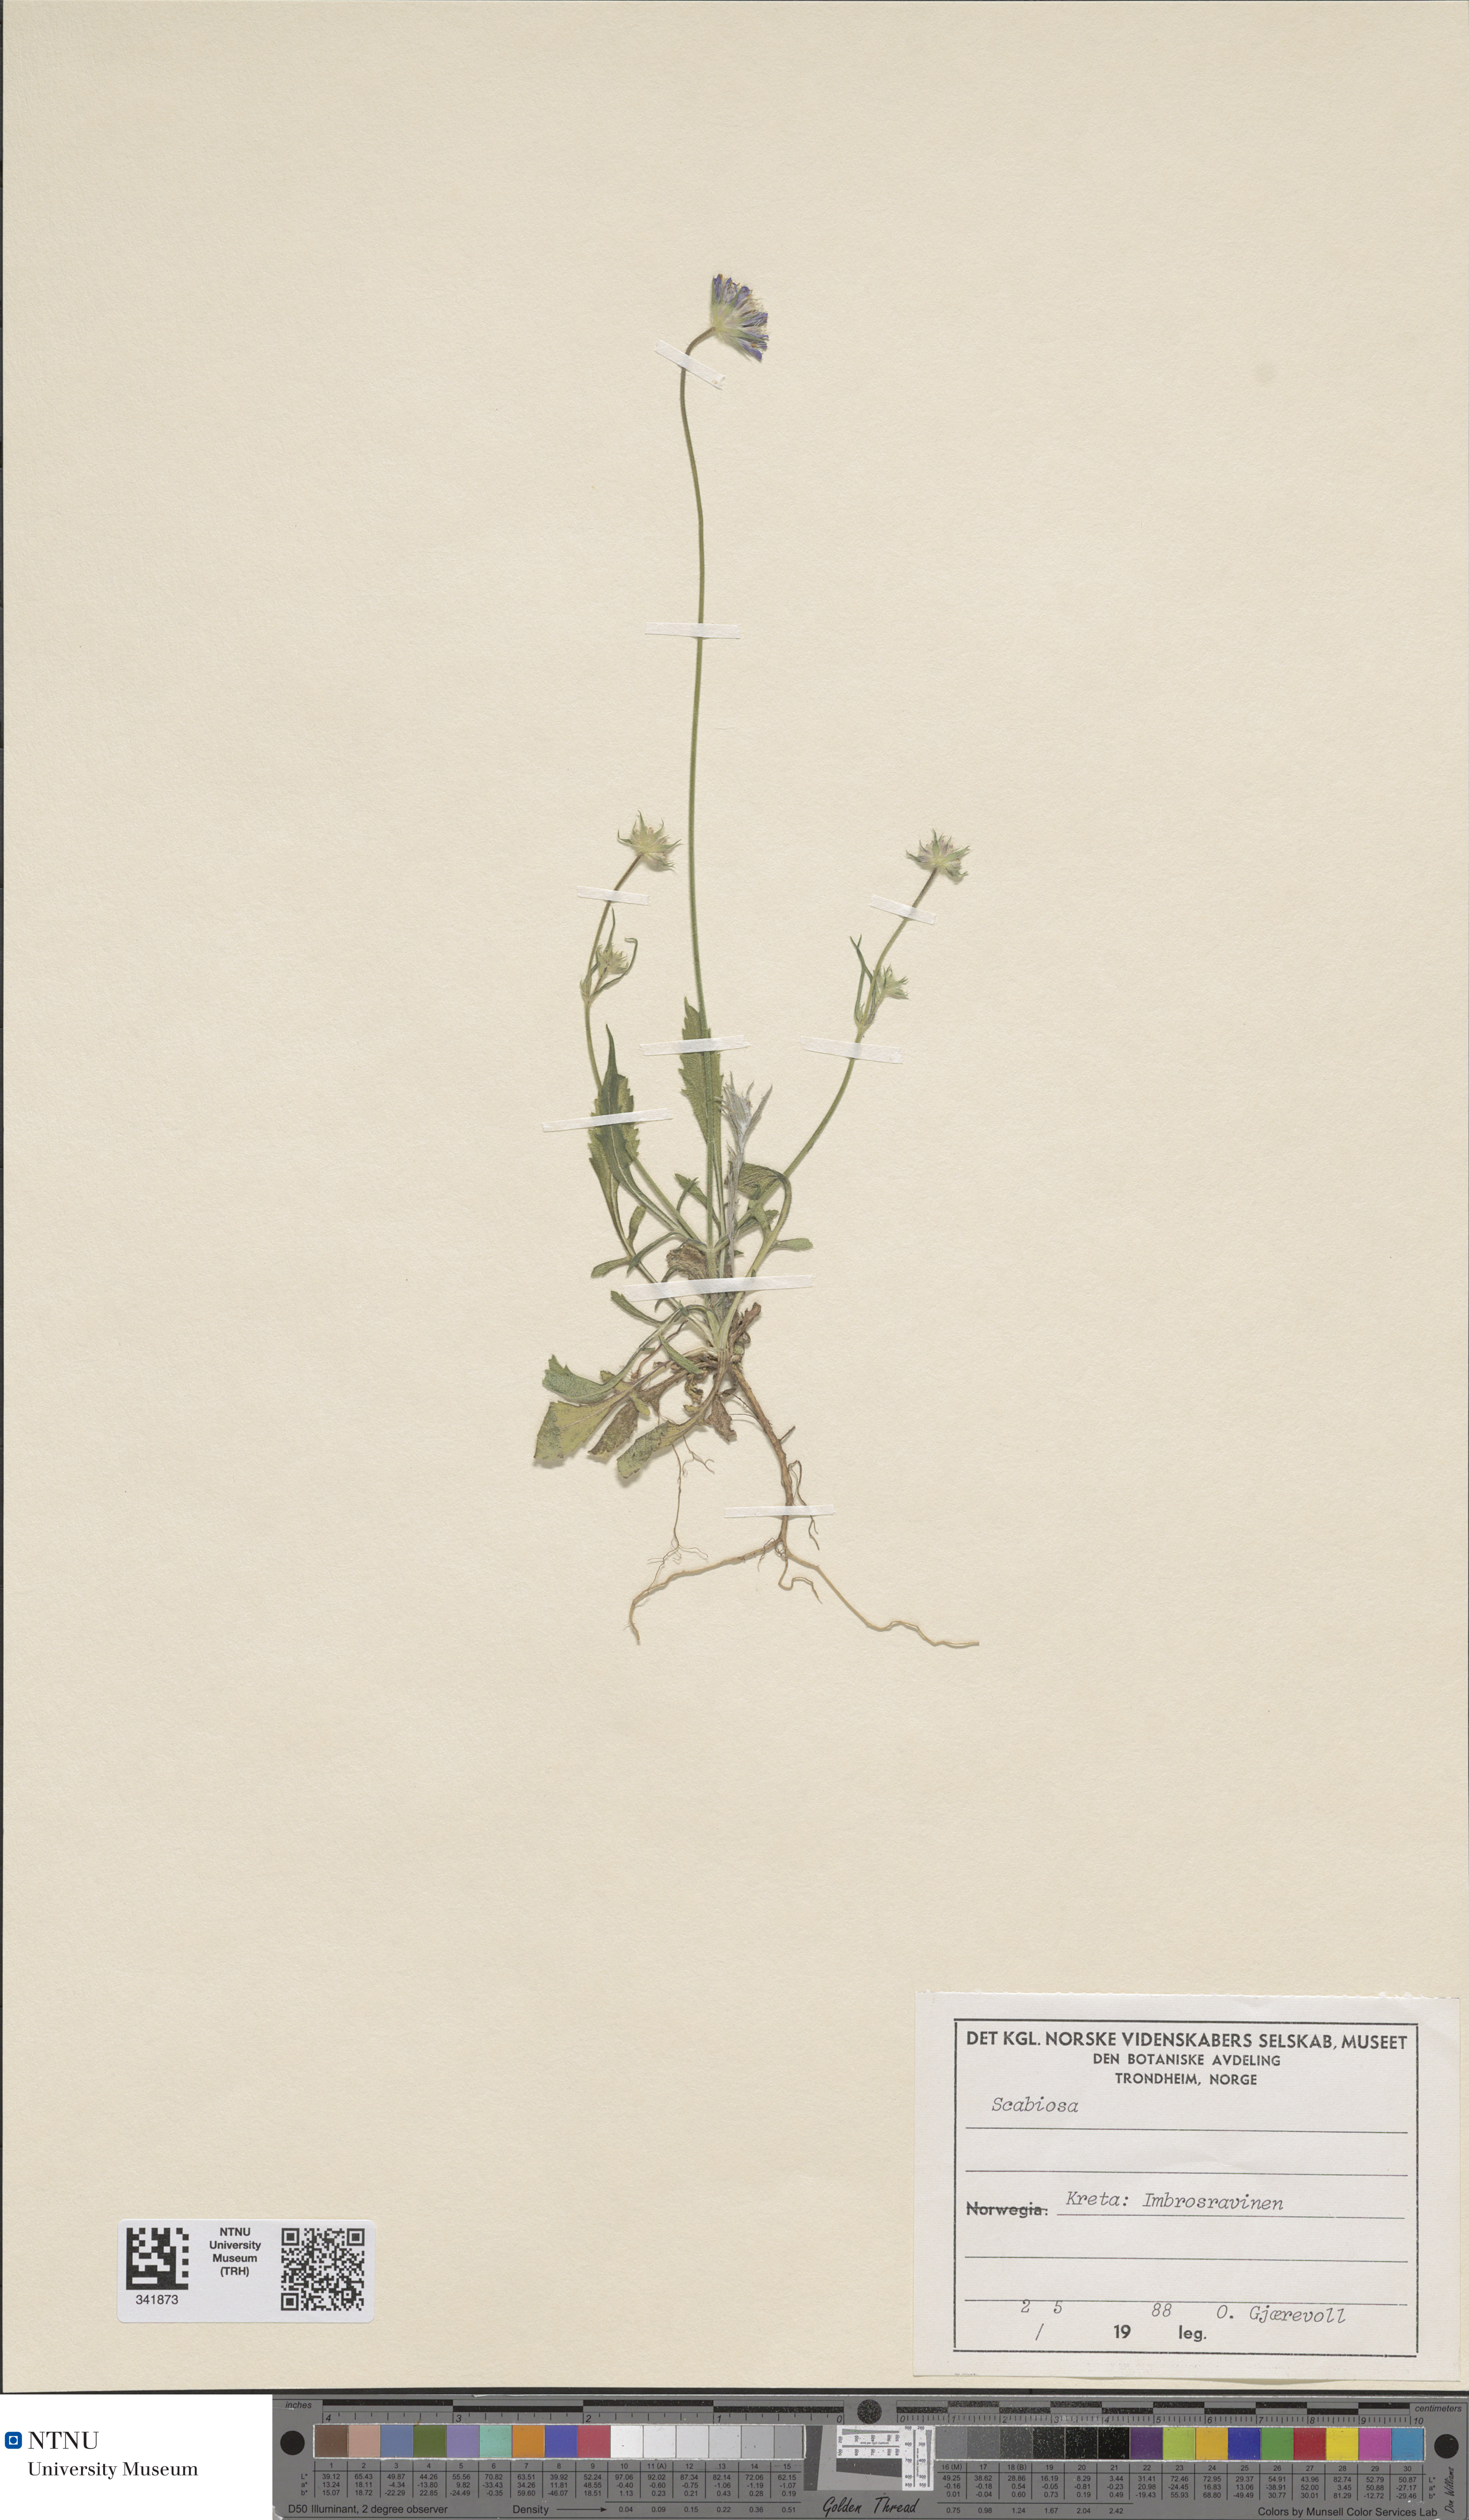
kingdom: Plantae
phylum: Tracheophyta
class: Magnoliopsida
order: Dipsacales
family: Caprifoliaceae
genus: Scabiosa
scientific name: Scabiosa
